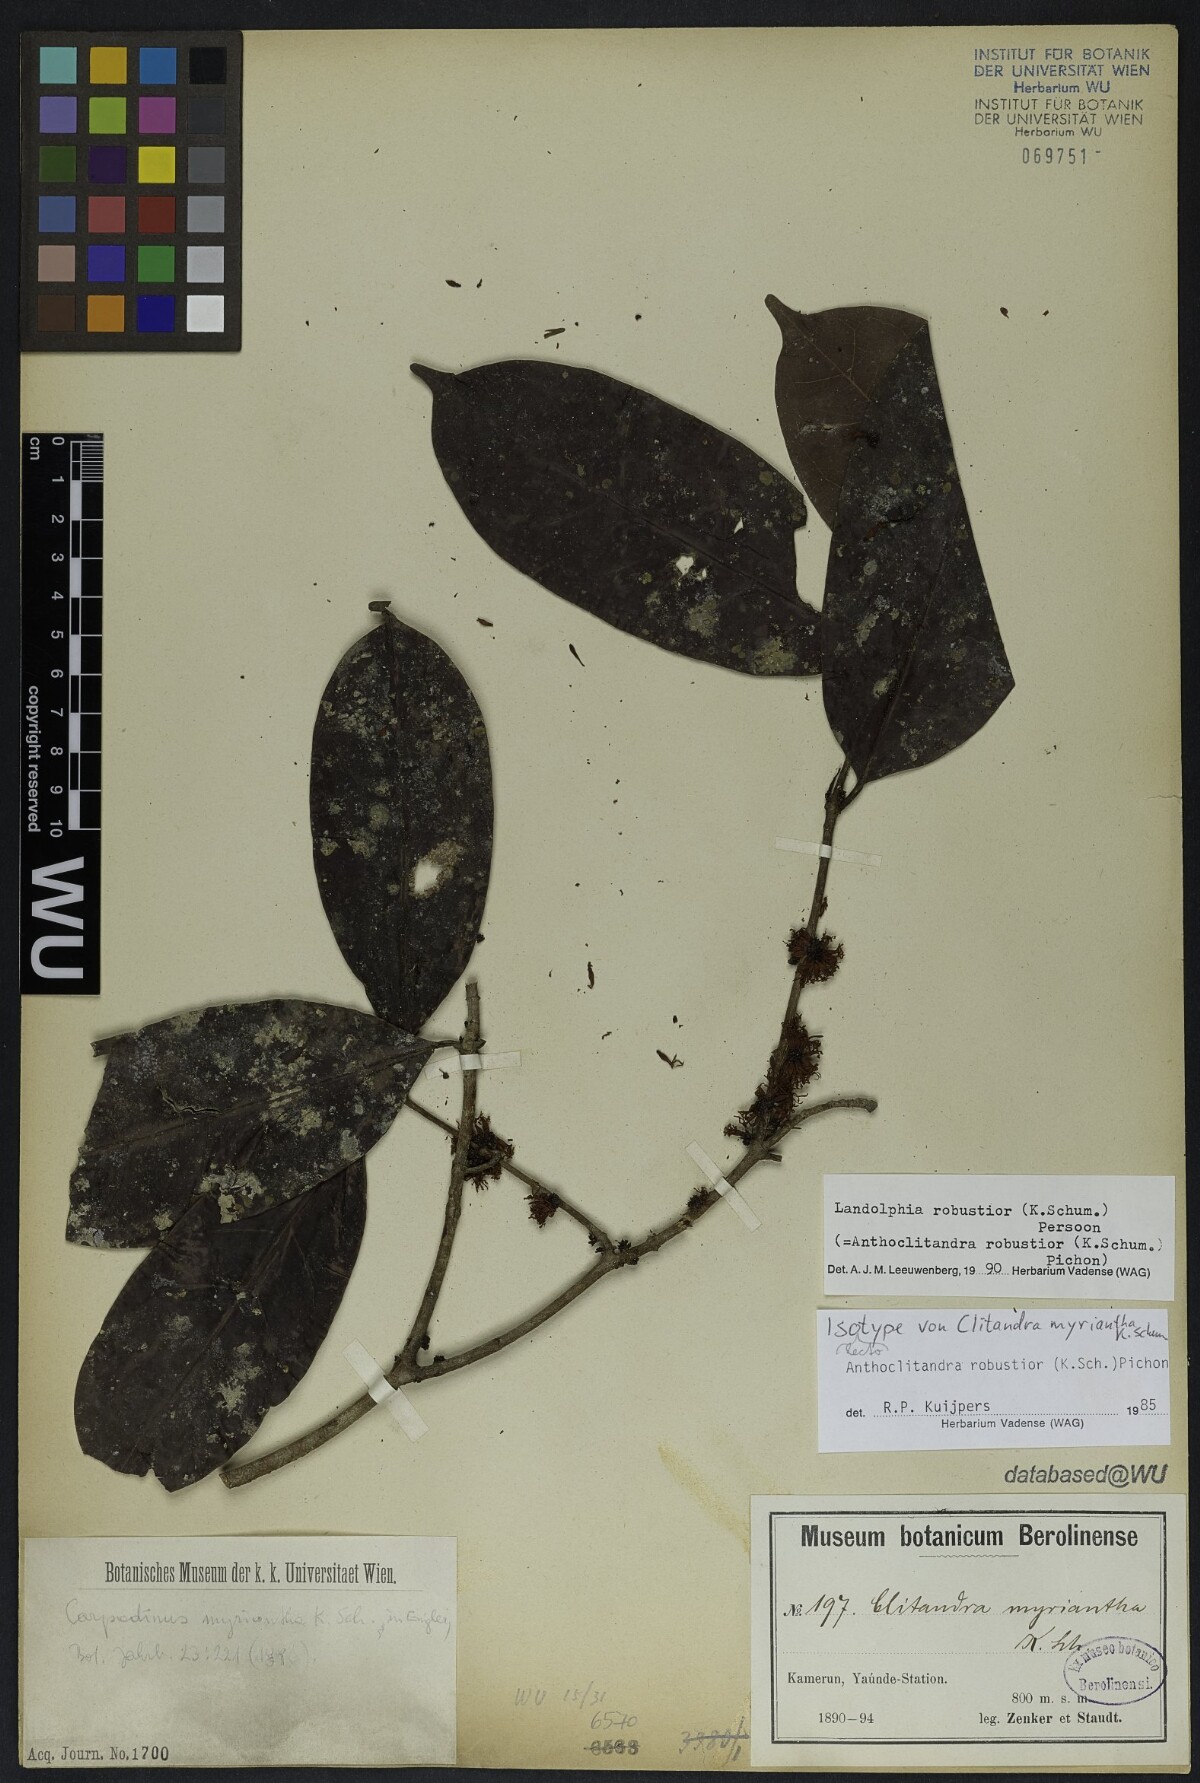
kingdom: Plantae
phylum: Tracheophyta
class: Magnoliopsida
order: Gentianales
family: Apocynaceae
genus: Landolphia
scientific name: Landolphia robustior
